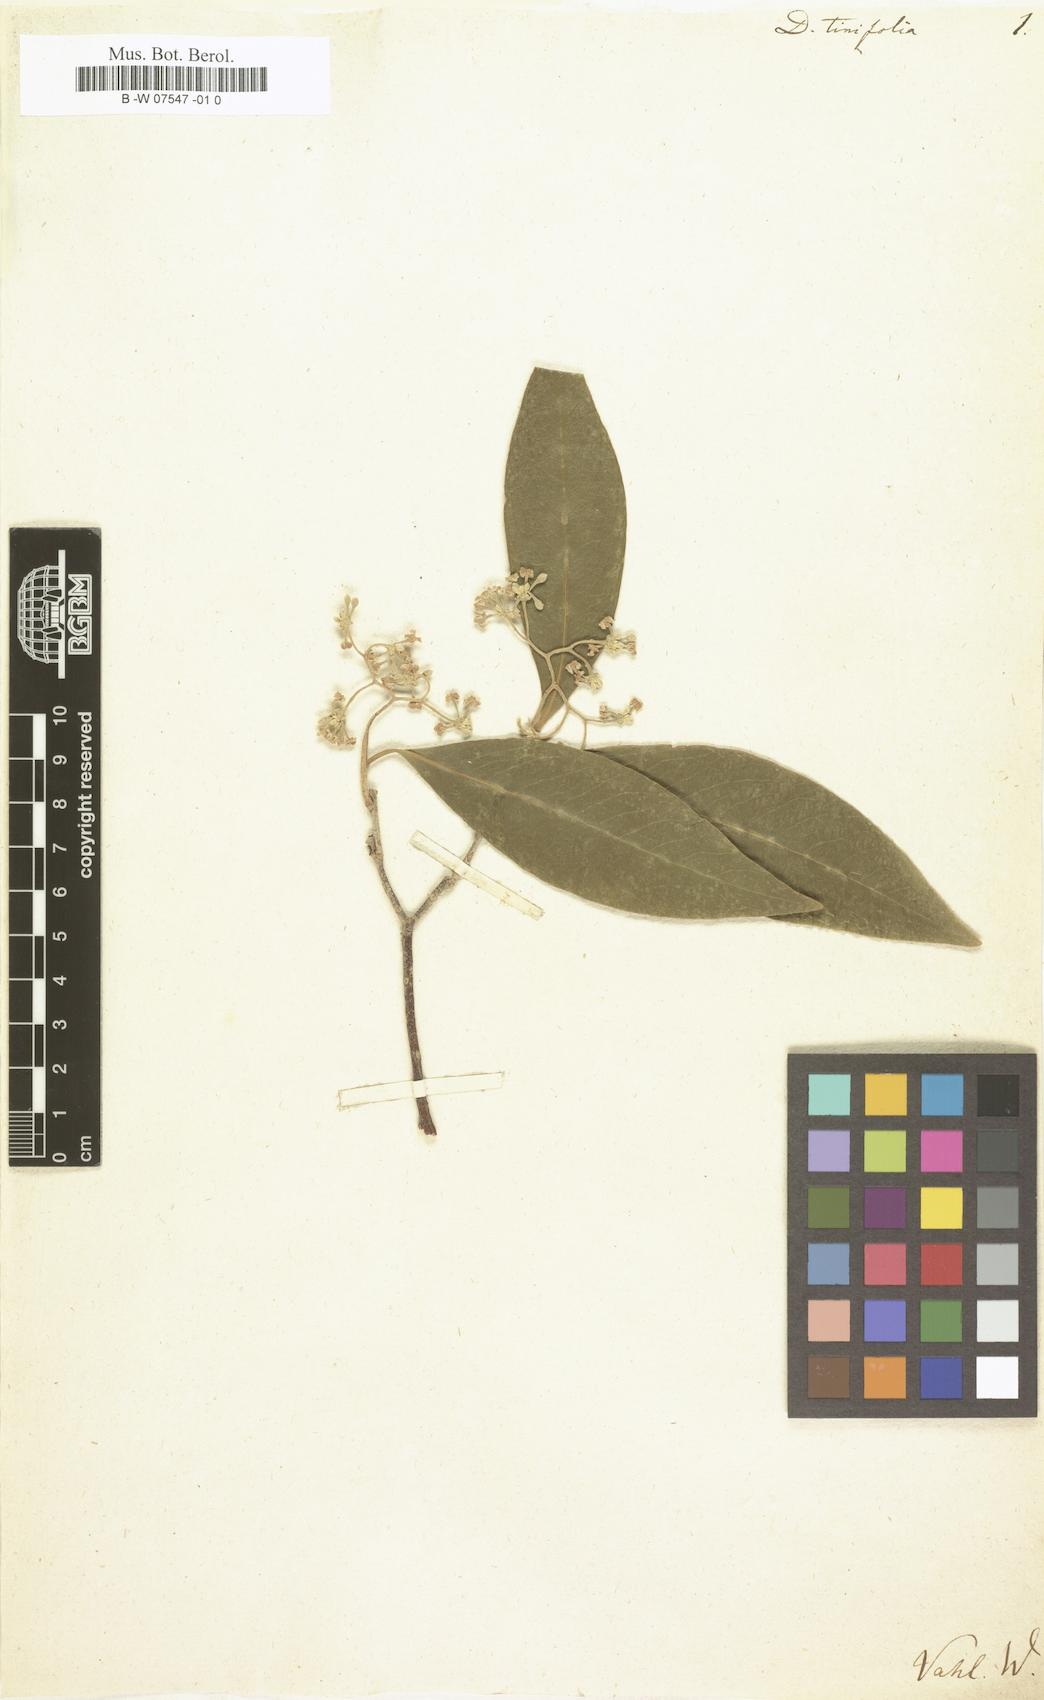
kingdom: Plantae
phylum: Tracheophyta
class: Magnoliopsida
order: Malvales
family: Thymelaeaceae
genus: Daphnopsis
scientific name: Daphnopsis americana
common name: Maho
